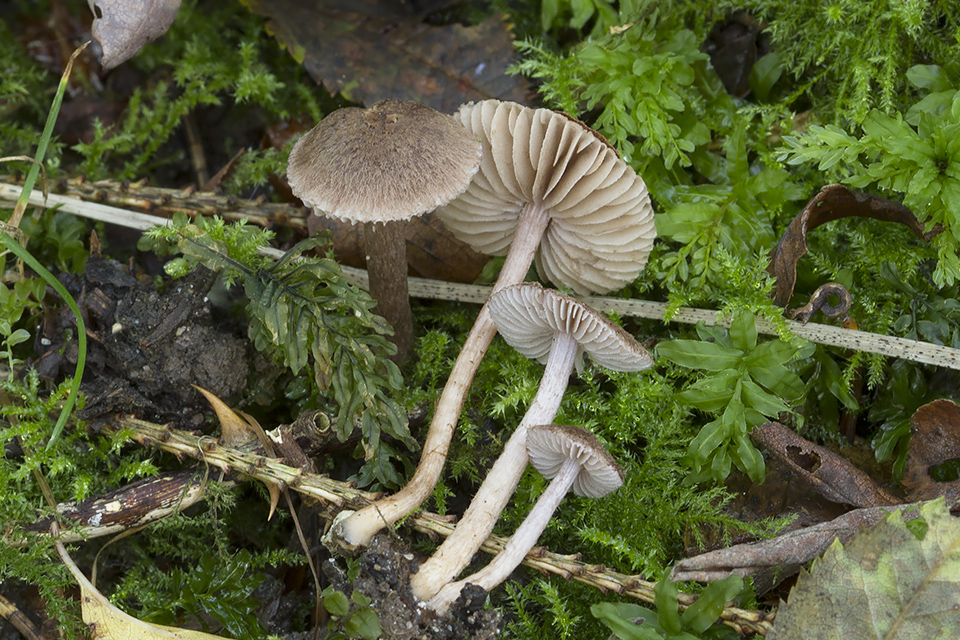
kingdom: Fungi
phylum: Basidiomycota
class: Agaricomycetes
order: Agaricales
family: Inocybaceae
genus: Inocybe
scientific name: Inocybe gaiana
